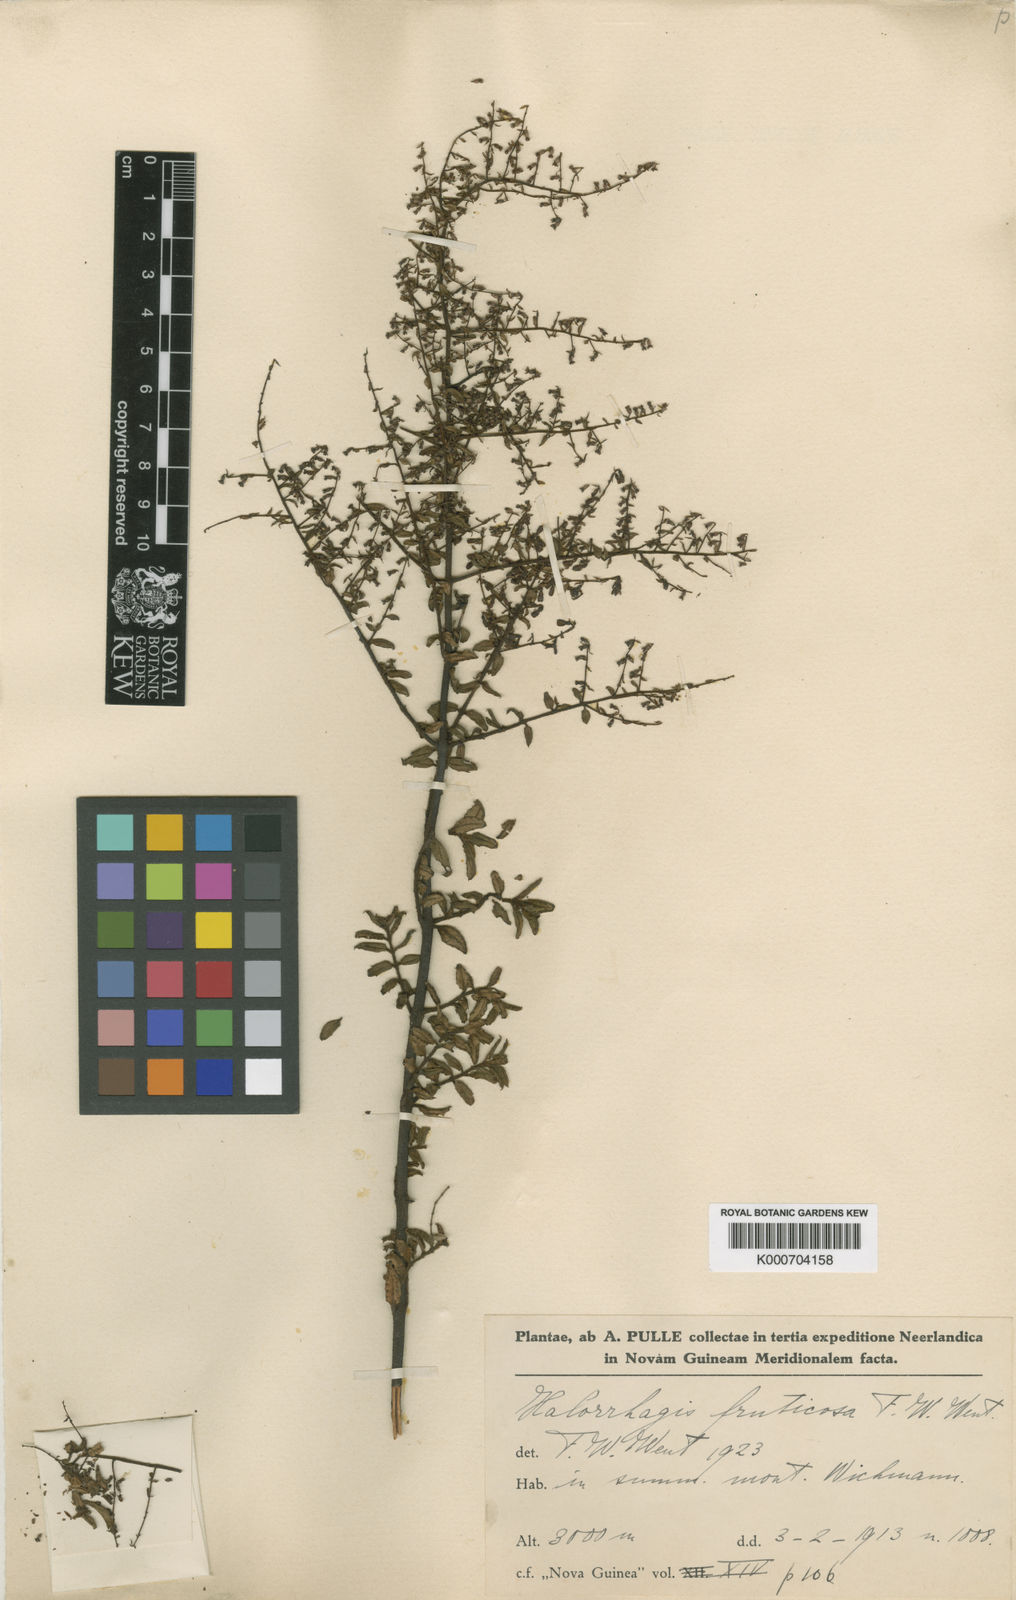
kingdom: Plantae
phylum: Tracheophyta
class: Magnoliopsida
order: Saxifragales
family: Haloragaceae
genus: Gonocarpus
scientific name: Gonocarpus halconensis
